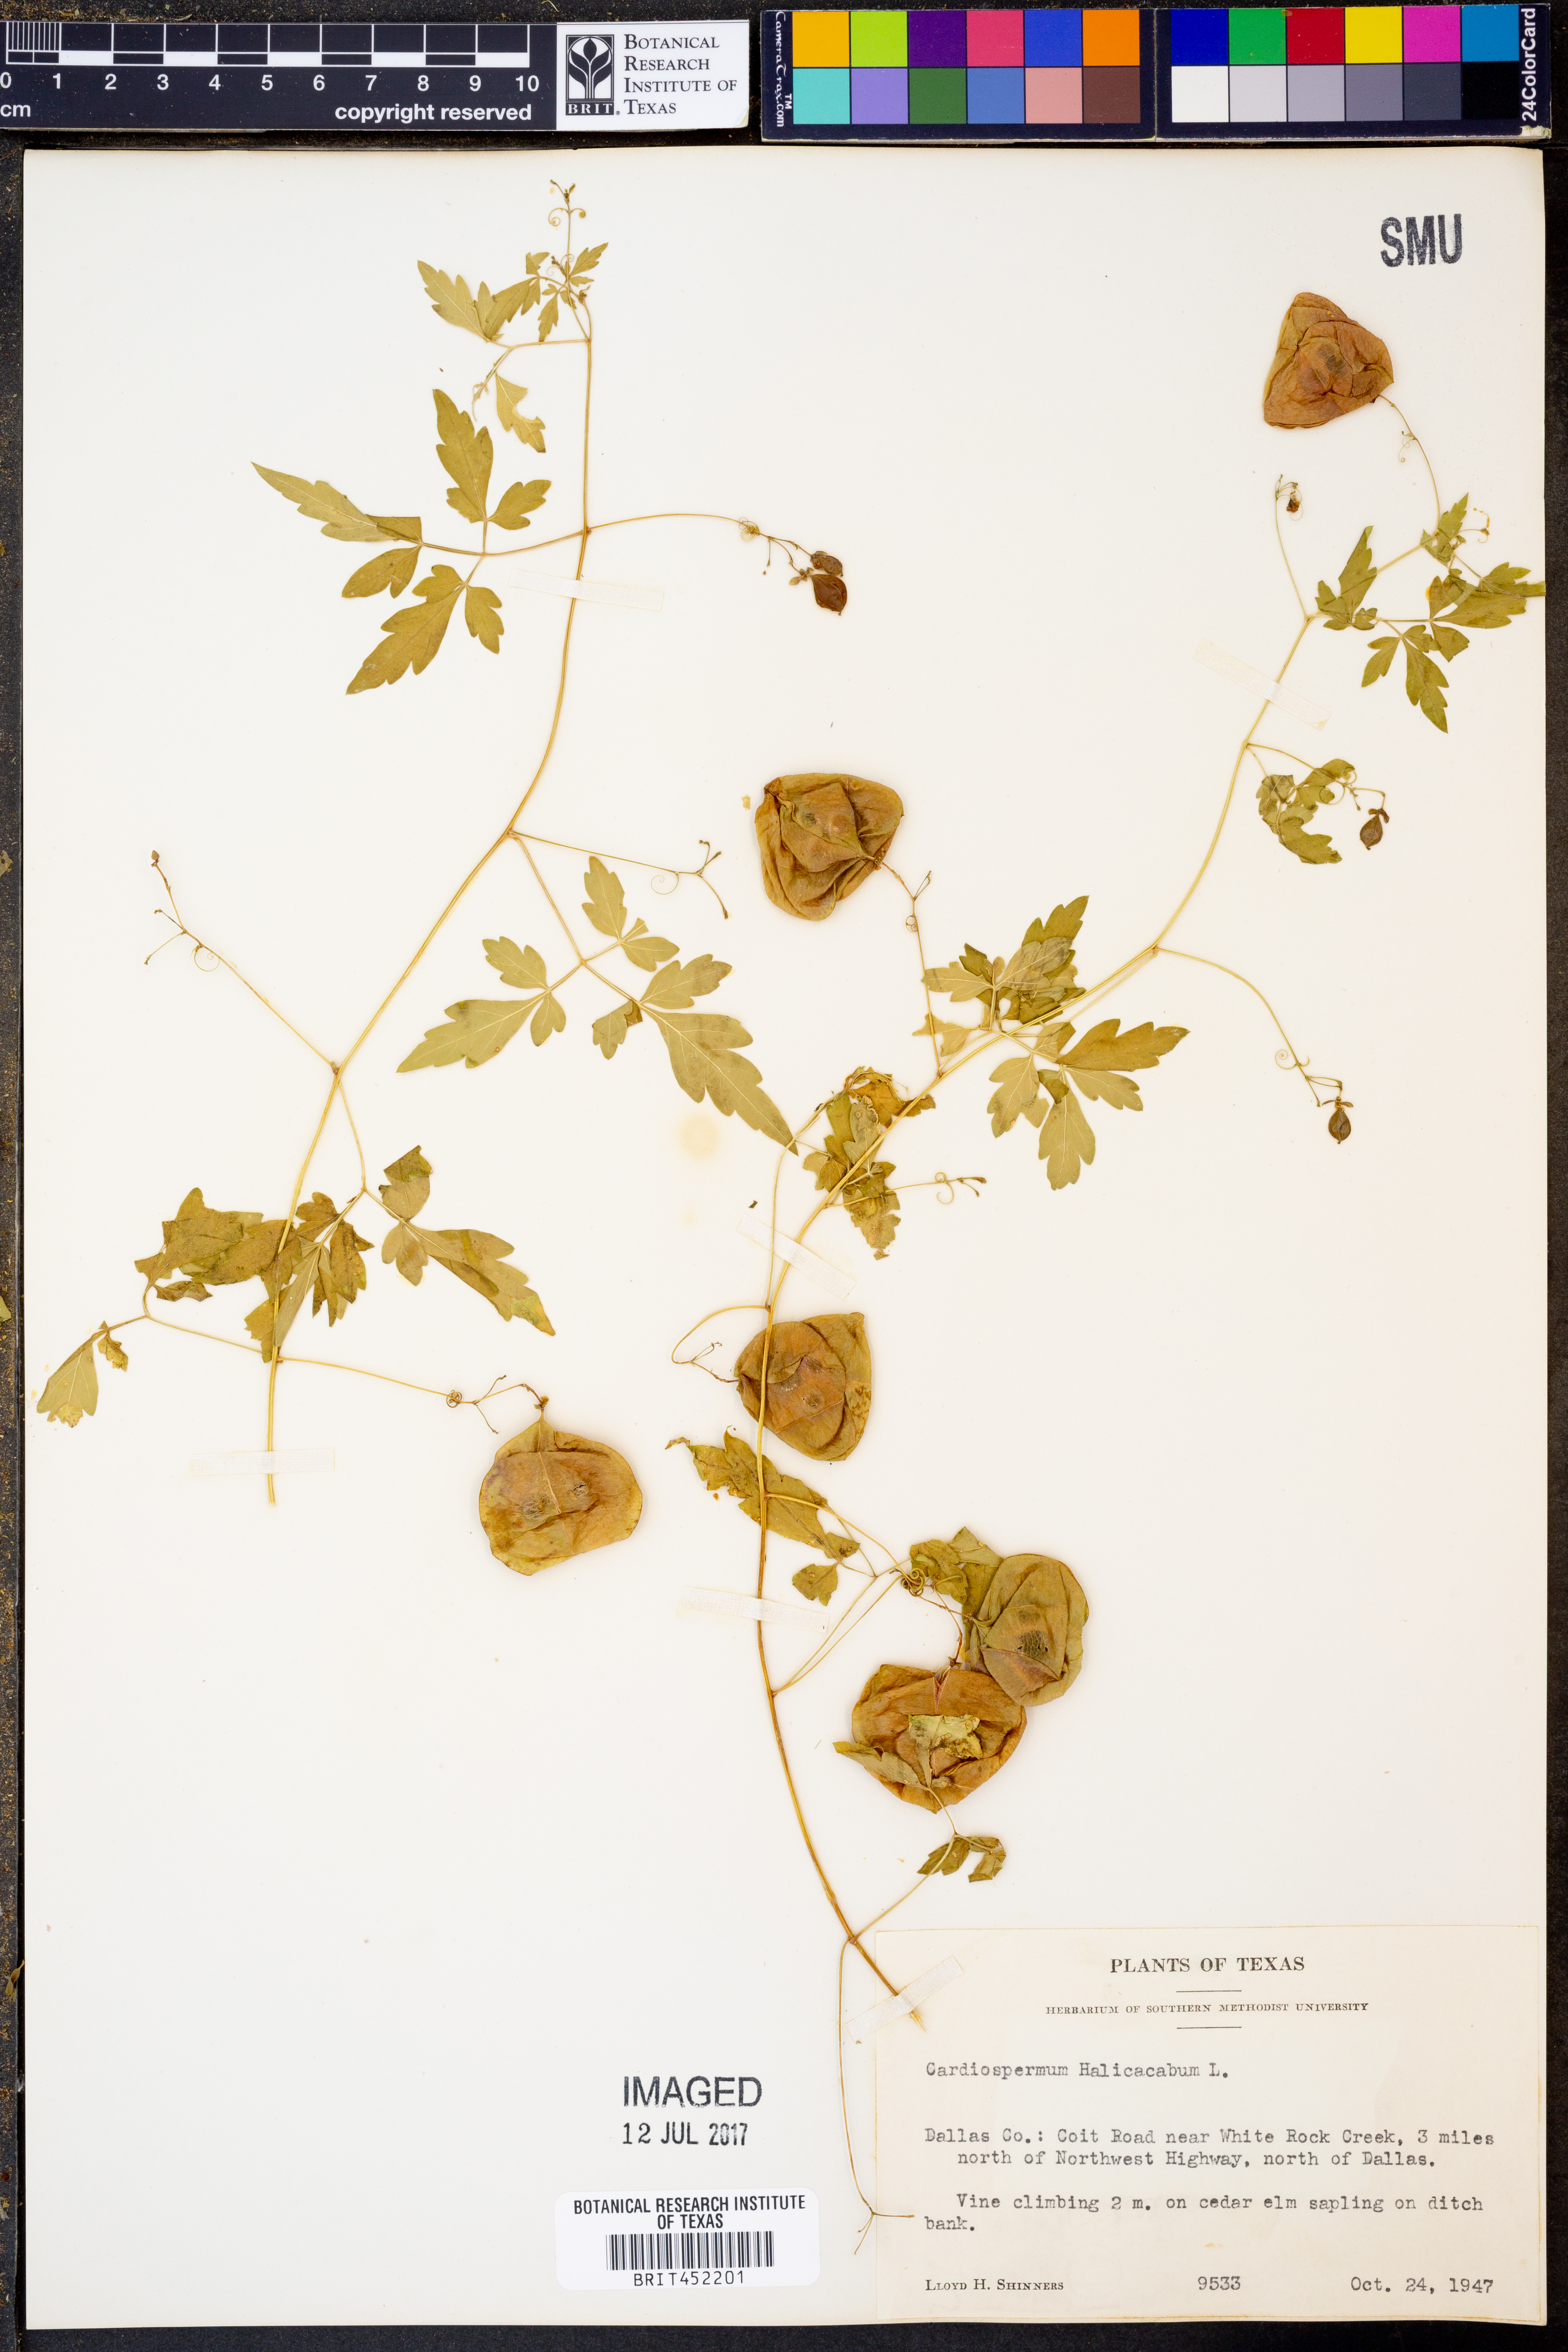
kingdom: Plantae
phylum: Tracheophyta
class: Magnoliopsida
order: Sapindales
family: Sapindaceae
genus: Cardiospermum
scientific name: Cardiospermum halicacabum
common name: Balloon vine
